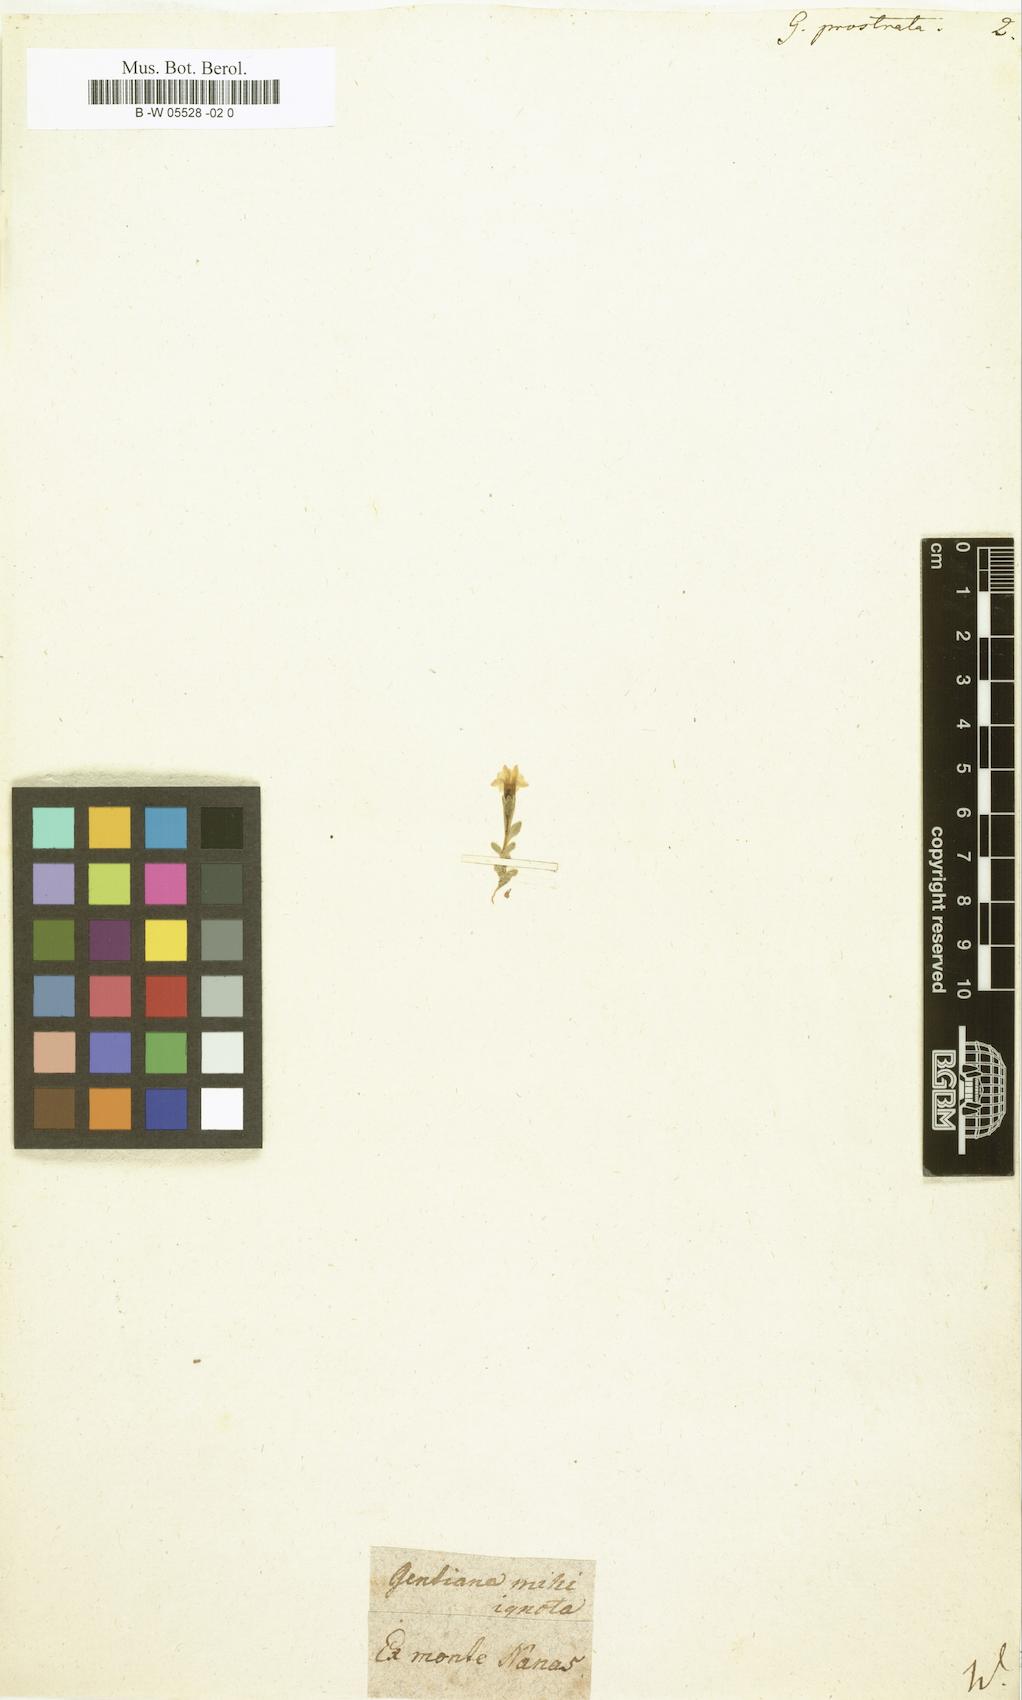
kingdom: Plantae
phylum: Tracheophyta
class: Magnoliopsida
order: Gentianales
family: Gentianaceae
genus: Gentiana
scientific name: Gentiana prostrata
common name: Moss gentian
